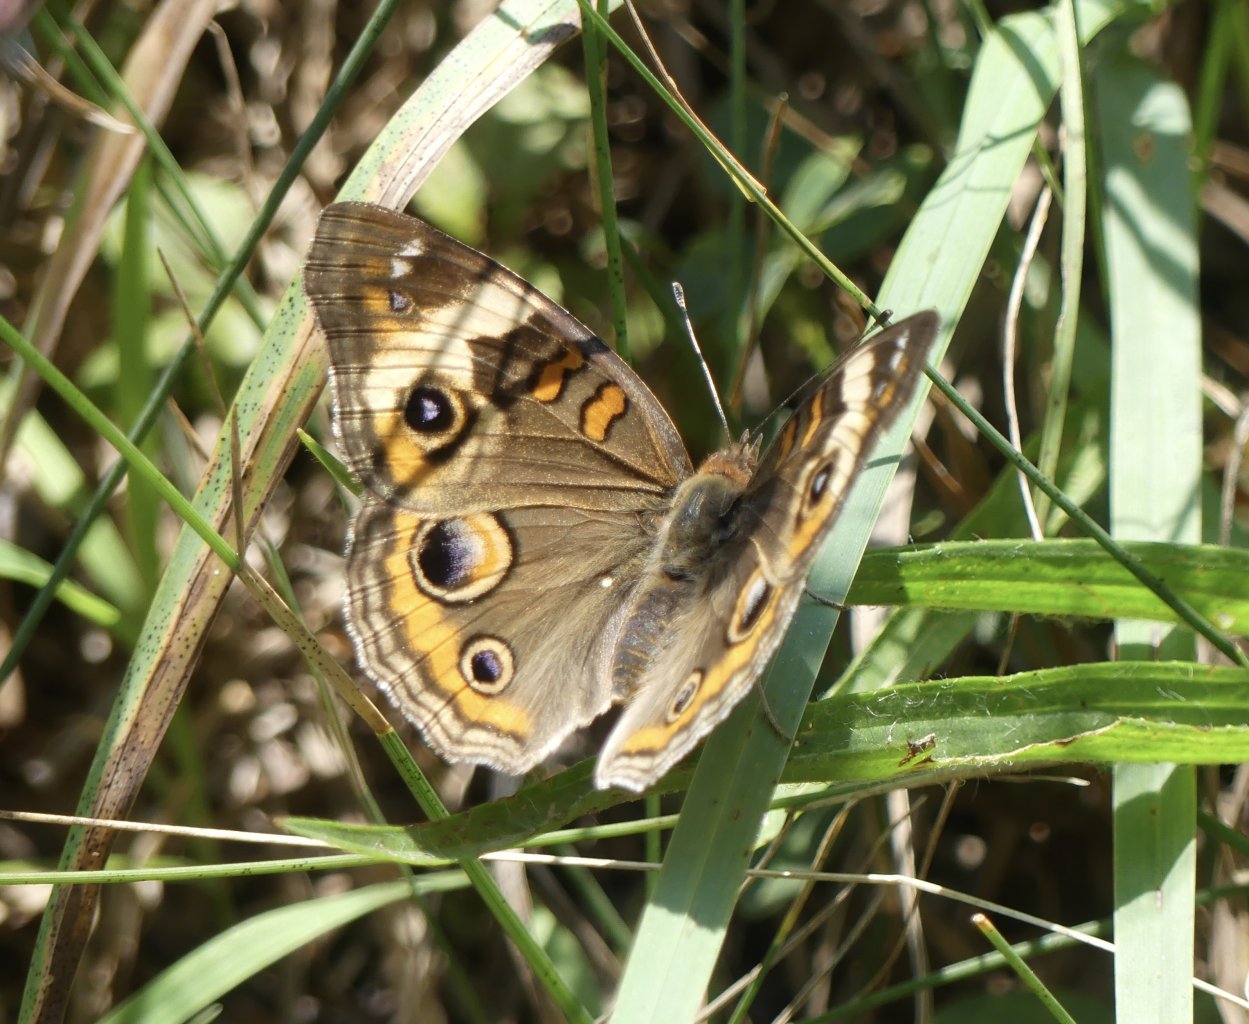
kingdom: Animalia
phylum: Arthropoda
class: Insecta
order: Lepidoptera
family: Nymphalidae
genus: Junonia
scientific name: Junonia coenia
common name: Common Buckeye
